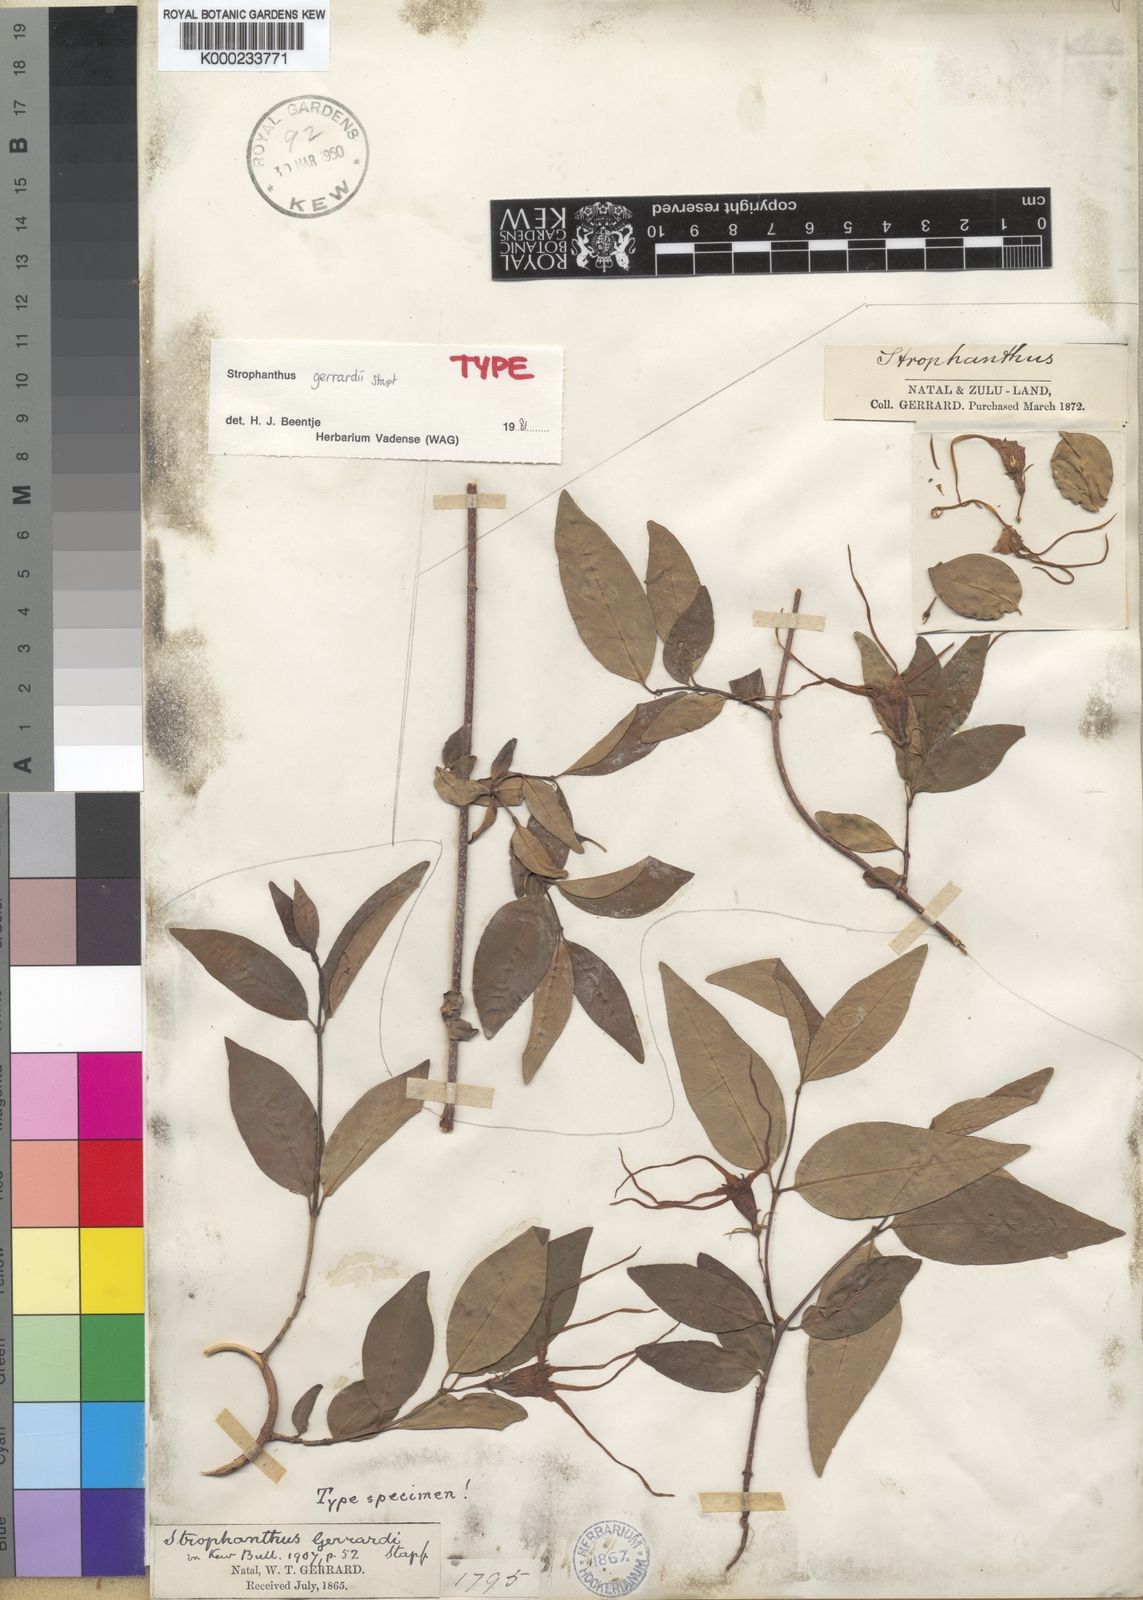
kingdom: Plantae
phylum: Tracheophyta
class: Magnoliopsida
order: Gentianales
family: Apocynaceae
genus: Strophanthus
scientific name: Strophanthus gerrardii
